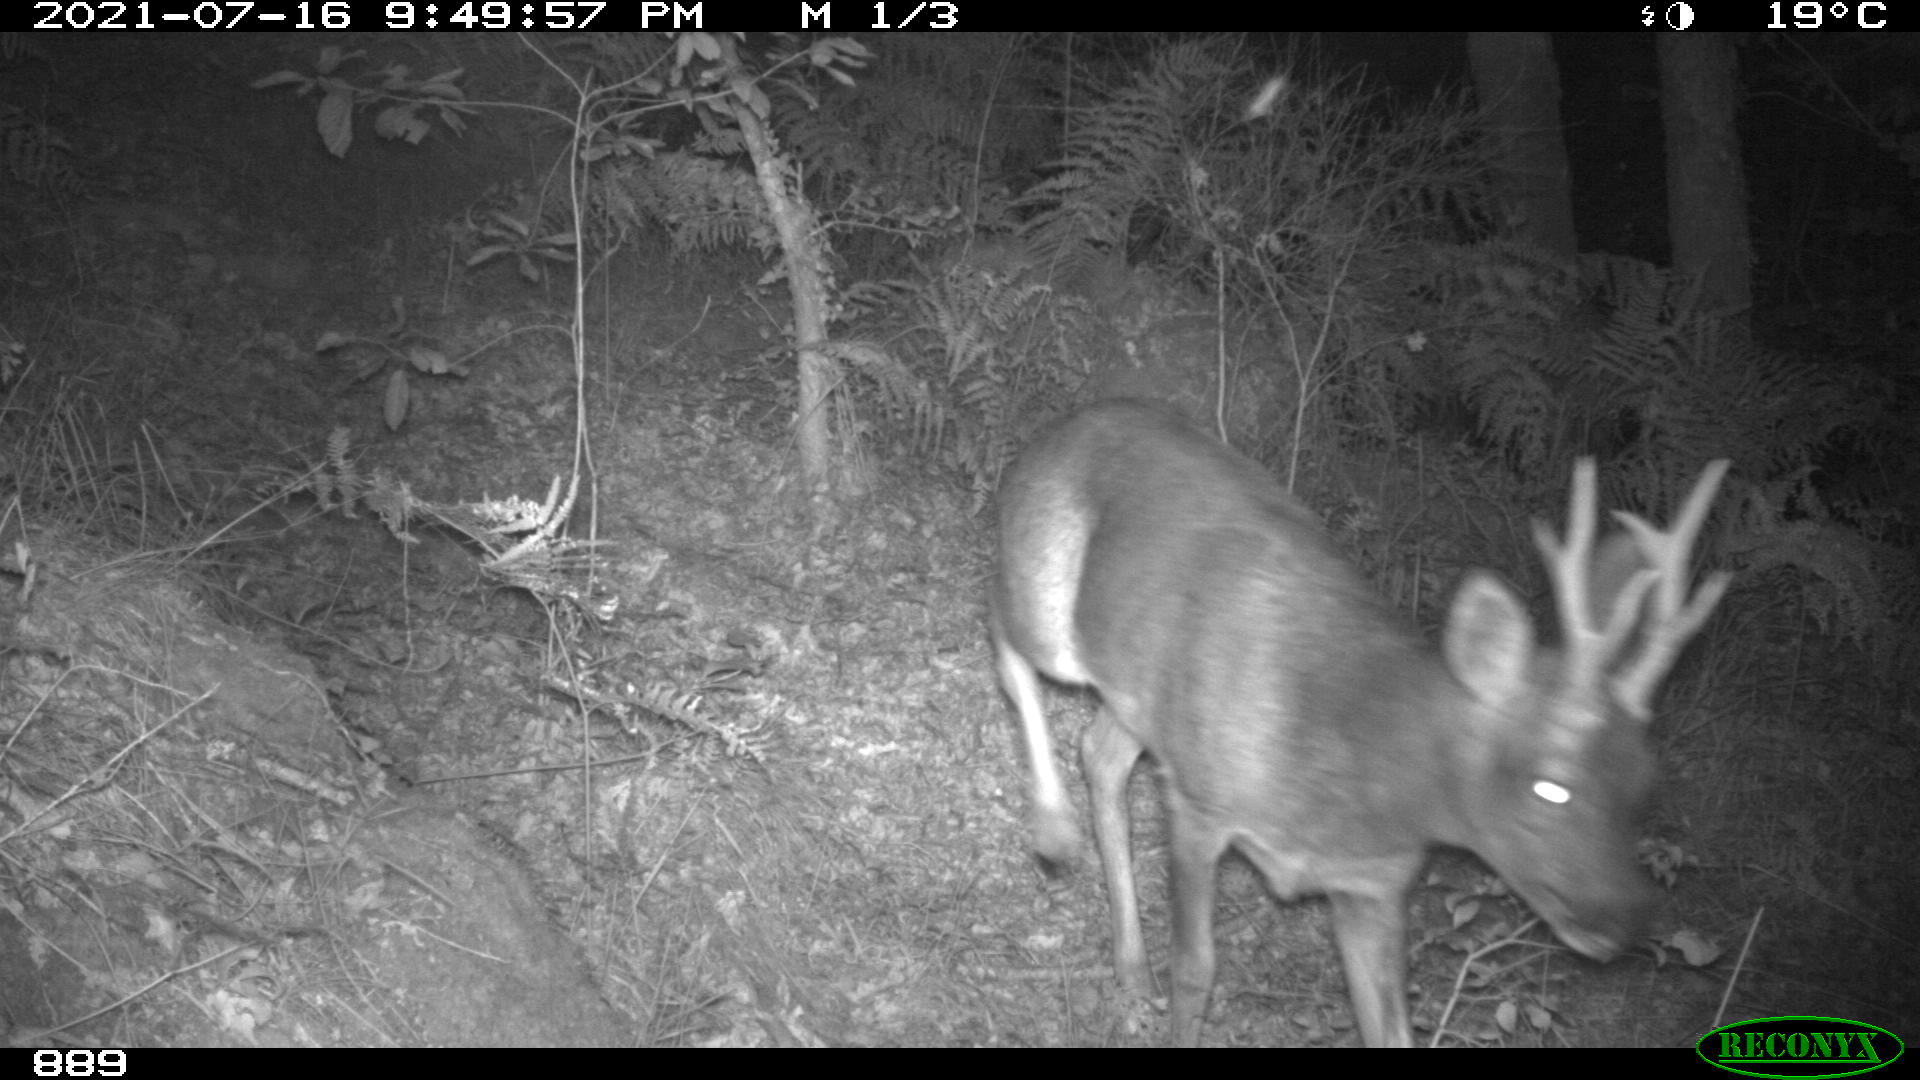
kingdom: Animalia
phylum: Chordata
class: Mammalia
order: Artiodactyla
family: Cervidae
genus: Capreolus
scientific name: Capreolus capreolus
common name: Western roe deer
